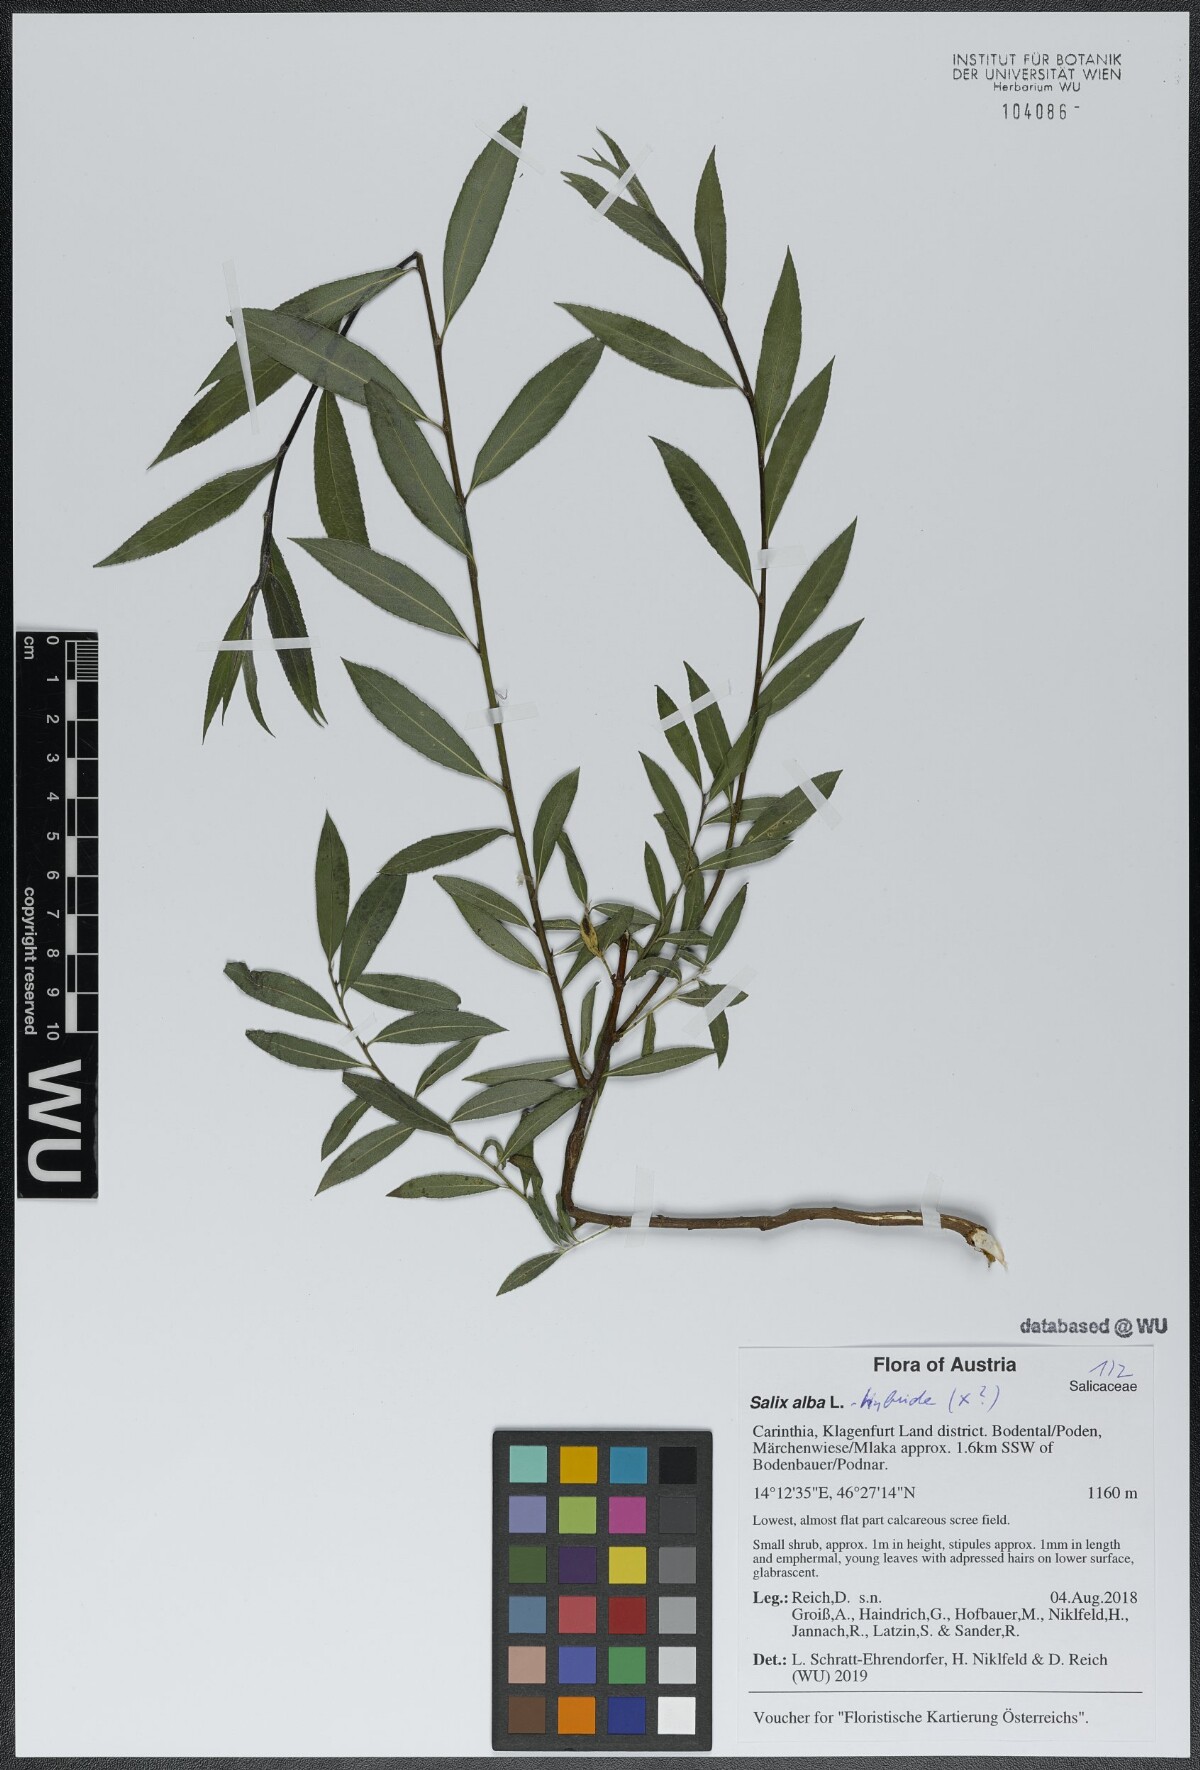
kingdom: Plantae
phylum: Tracheophyta
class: Magnoliopsida
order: Malpighiales
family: Salicaceae
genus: Salix
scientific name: Salix alba
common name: White willow
